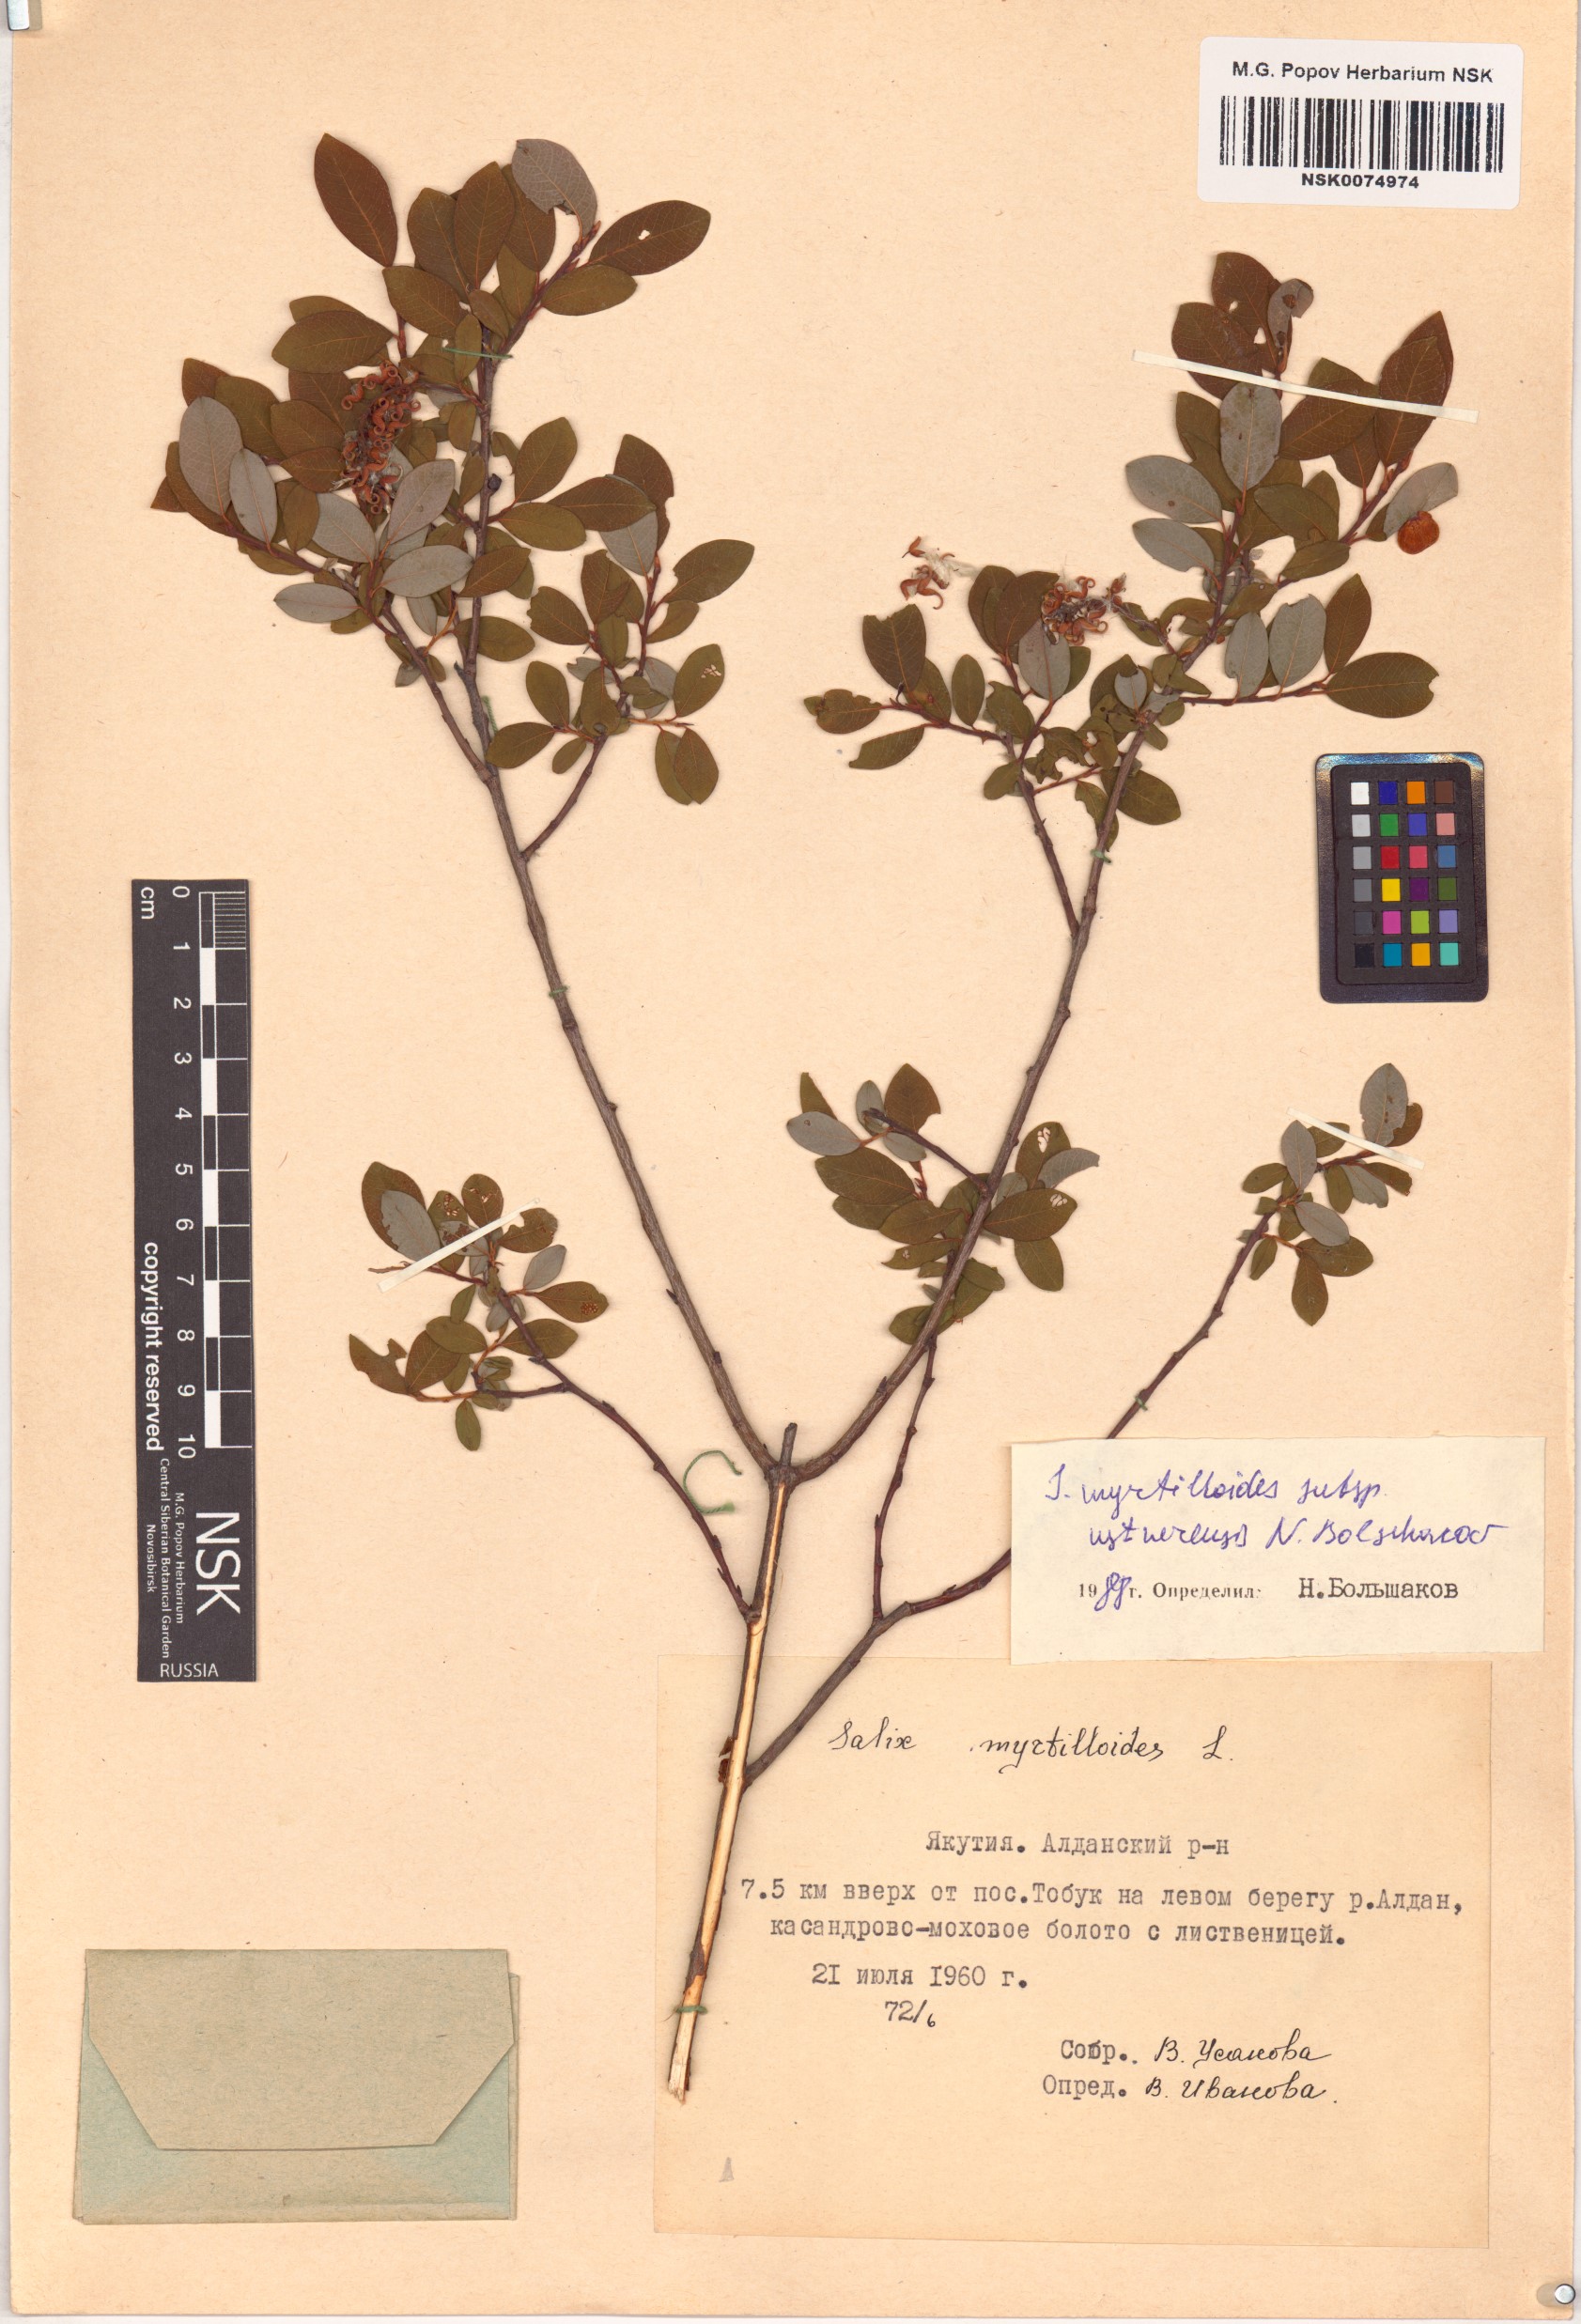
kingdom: Plantae
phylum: Tracheophyta
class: Magnoliopsida
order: Malpighiales
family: Salicaceae
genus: Salix
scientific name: Salix ustnerensis
